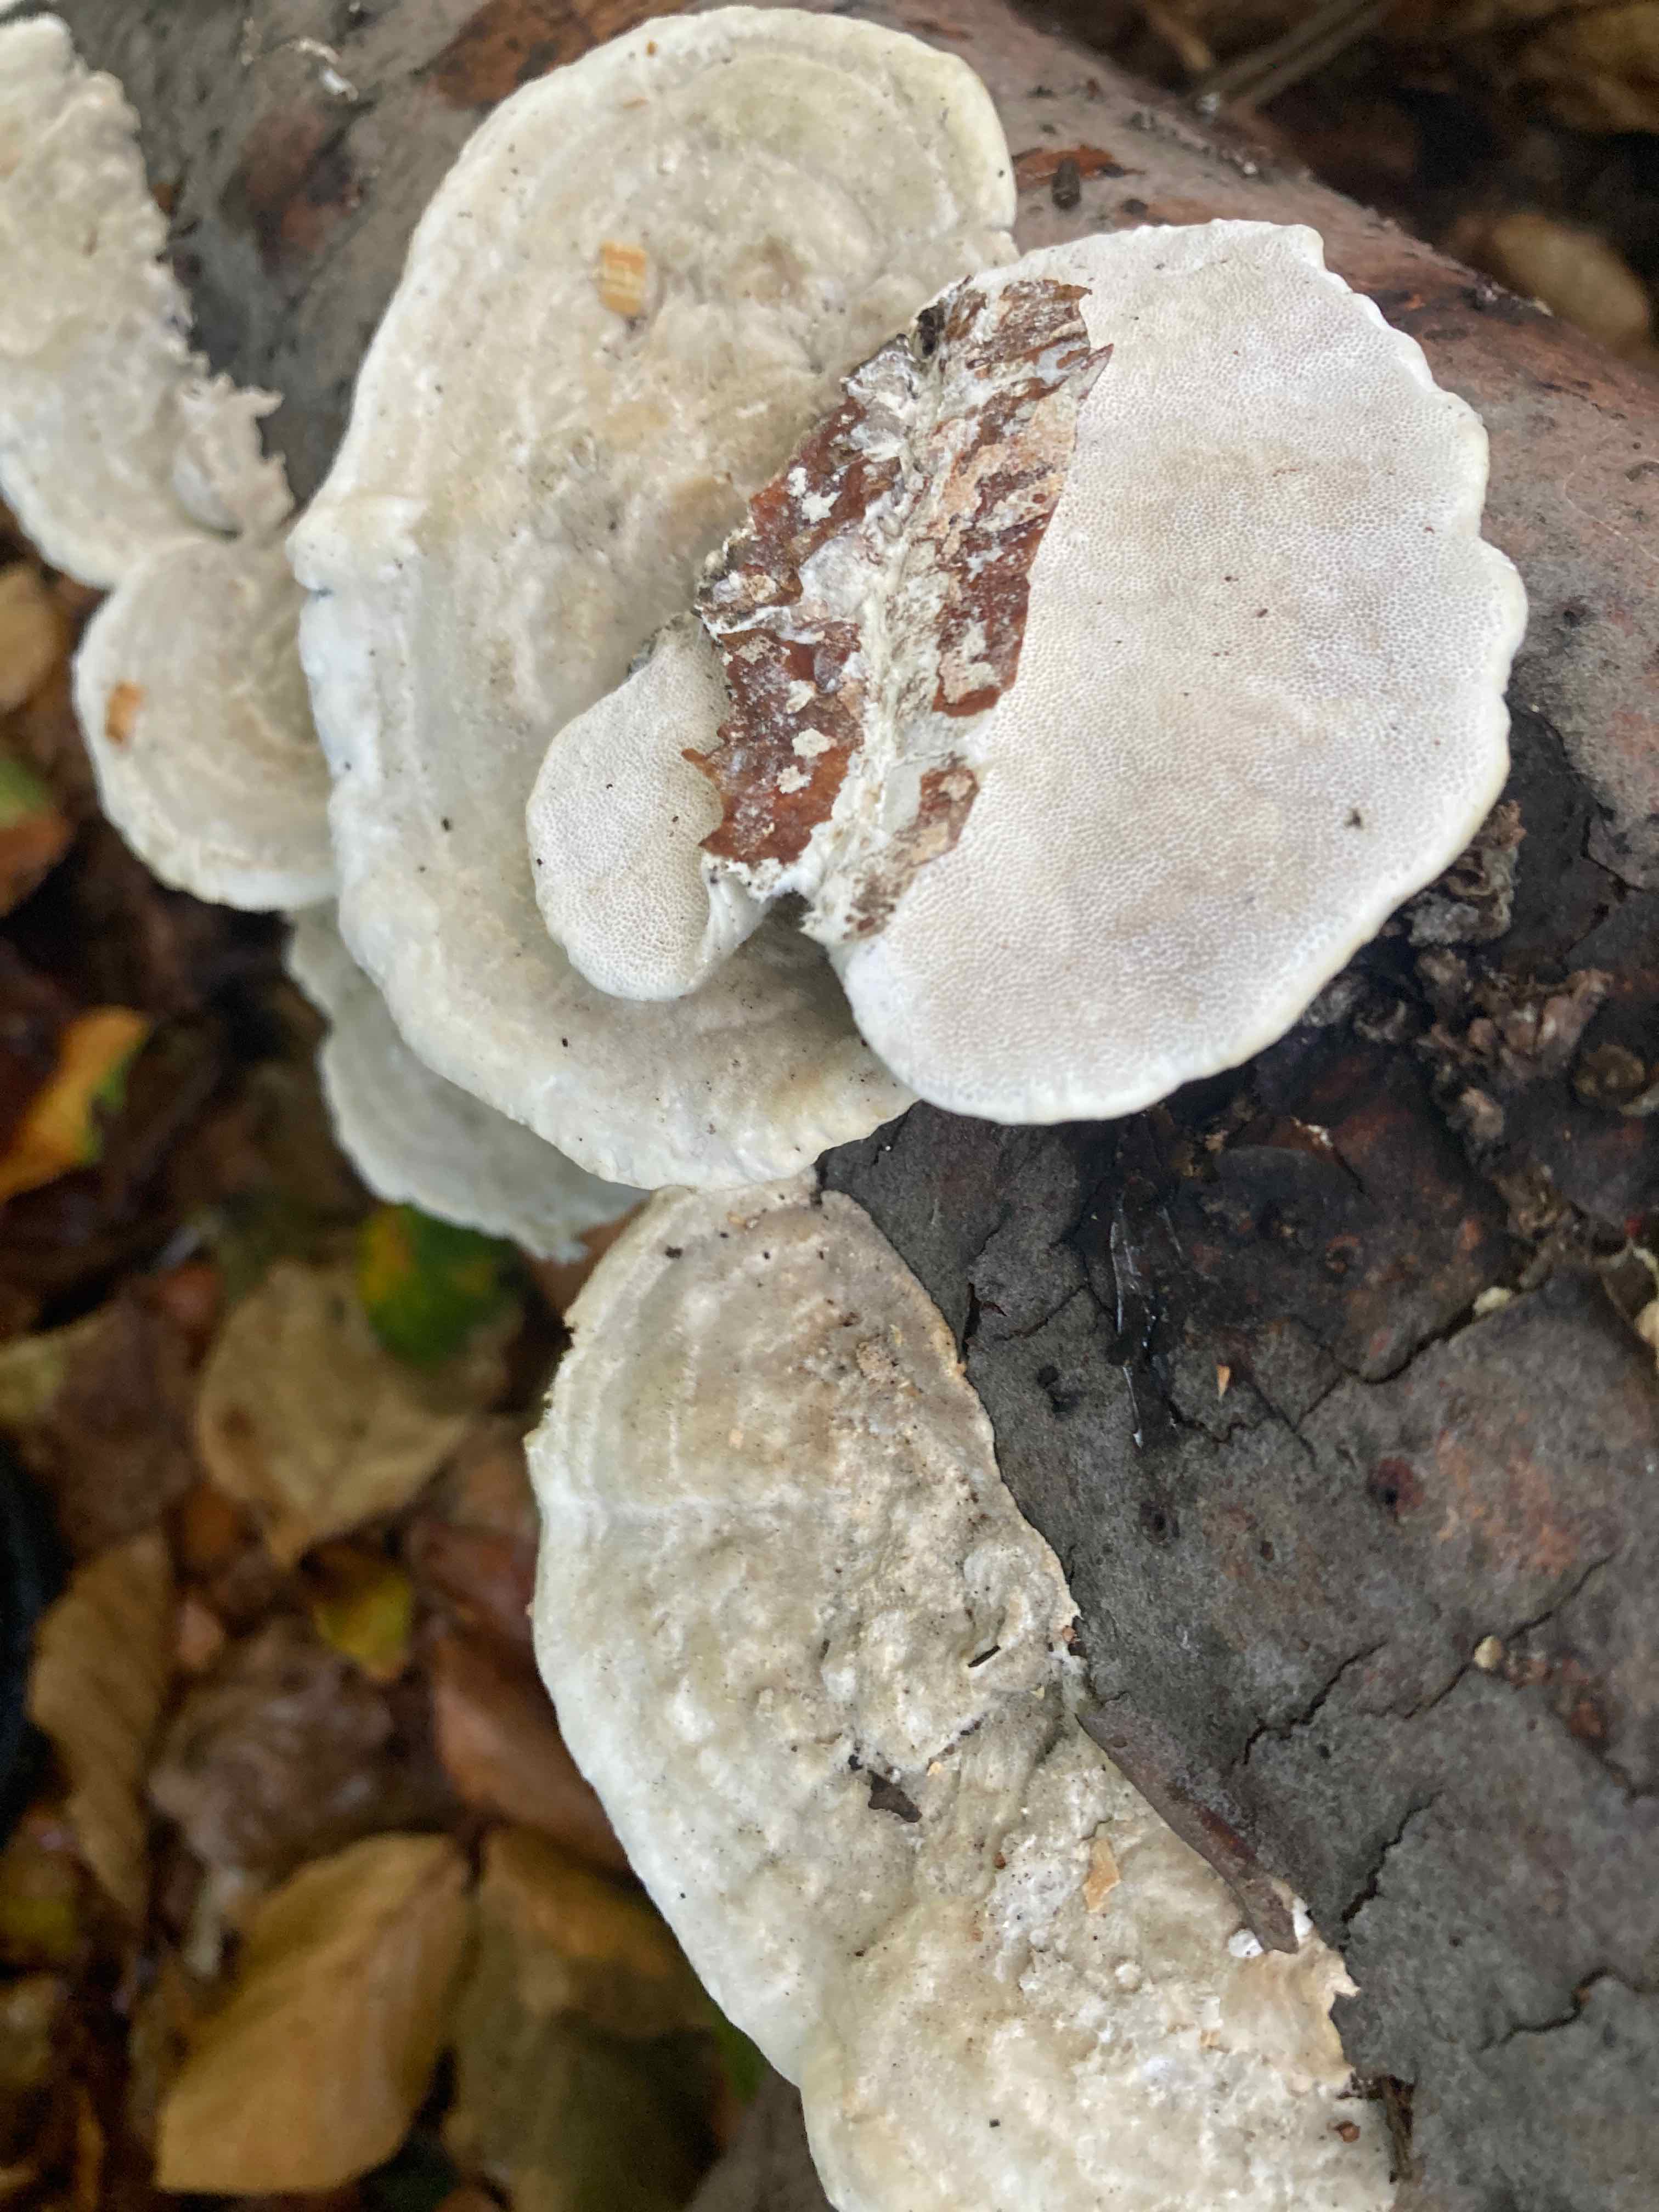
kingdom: Fungi
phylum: Basidiomycota
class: Agaricomycetes
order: Polyporales
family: Polyporaceae
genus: Trametes
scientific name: Trametes hirsuta
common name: håret læderporesvamp
